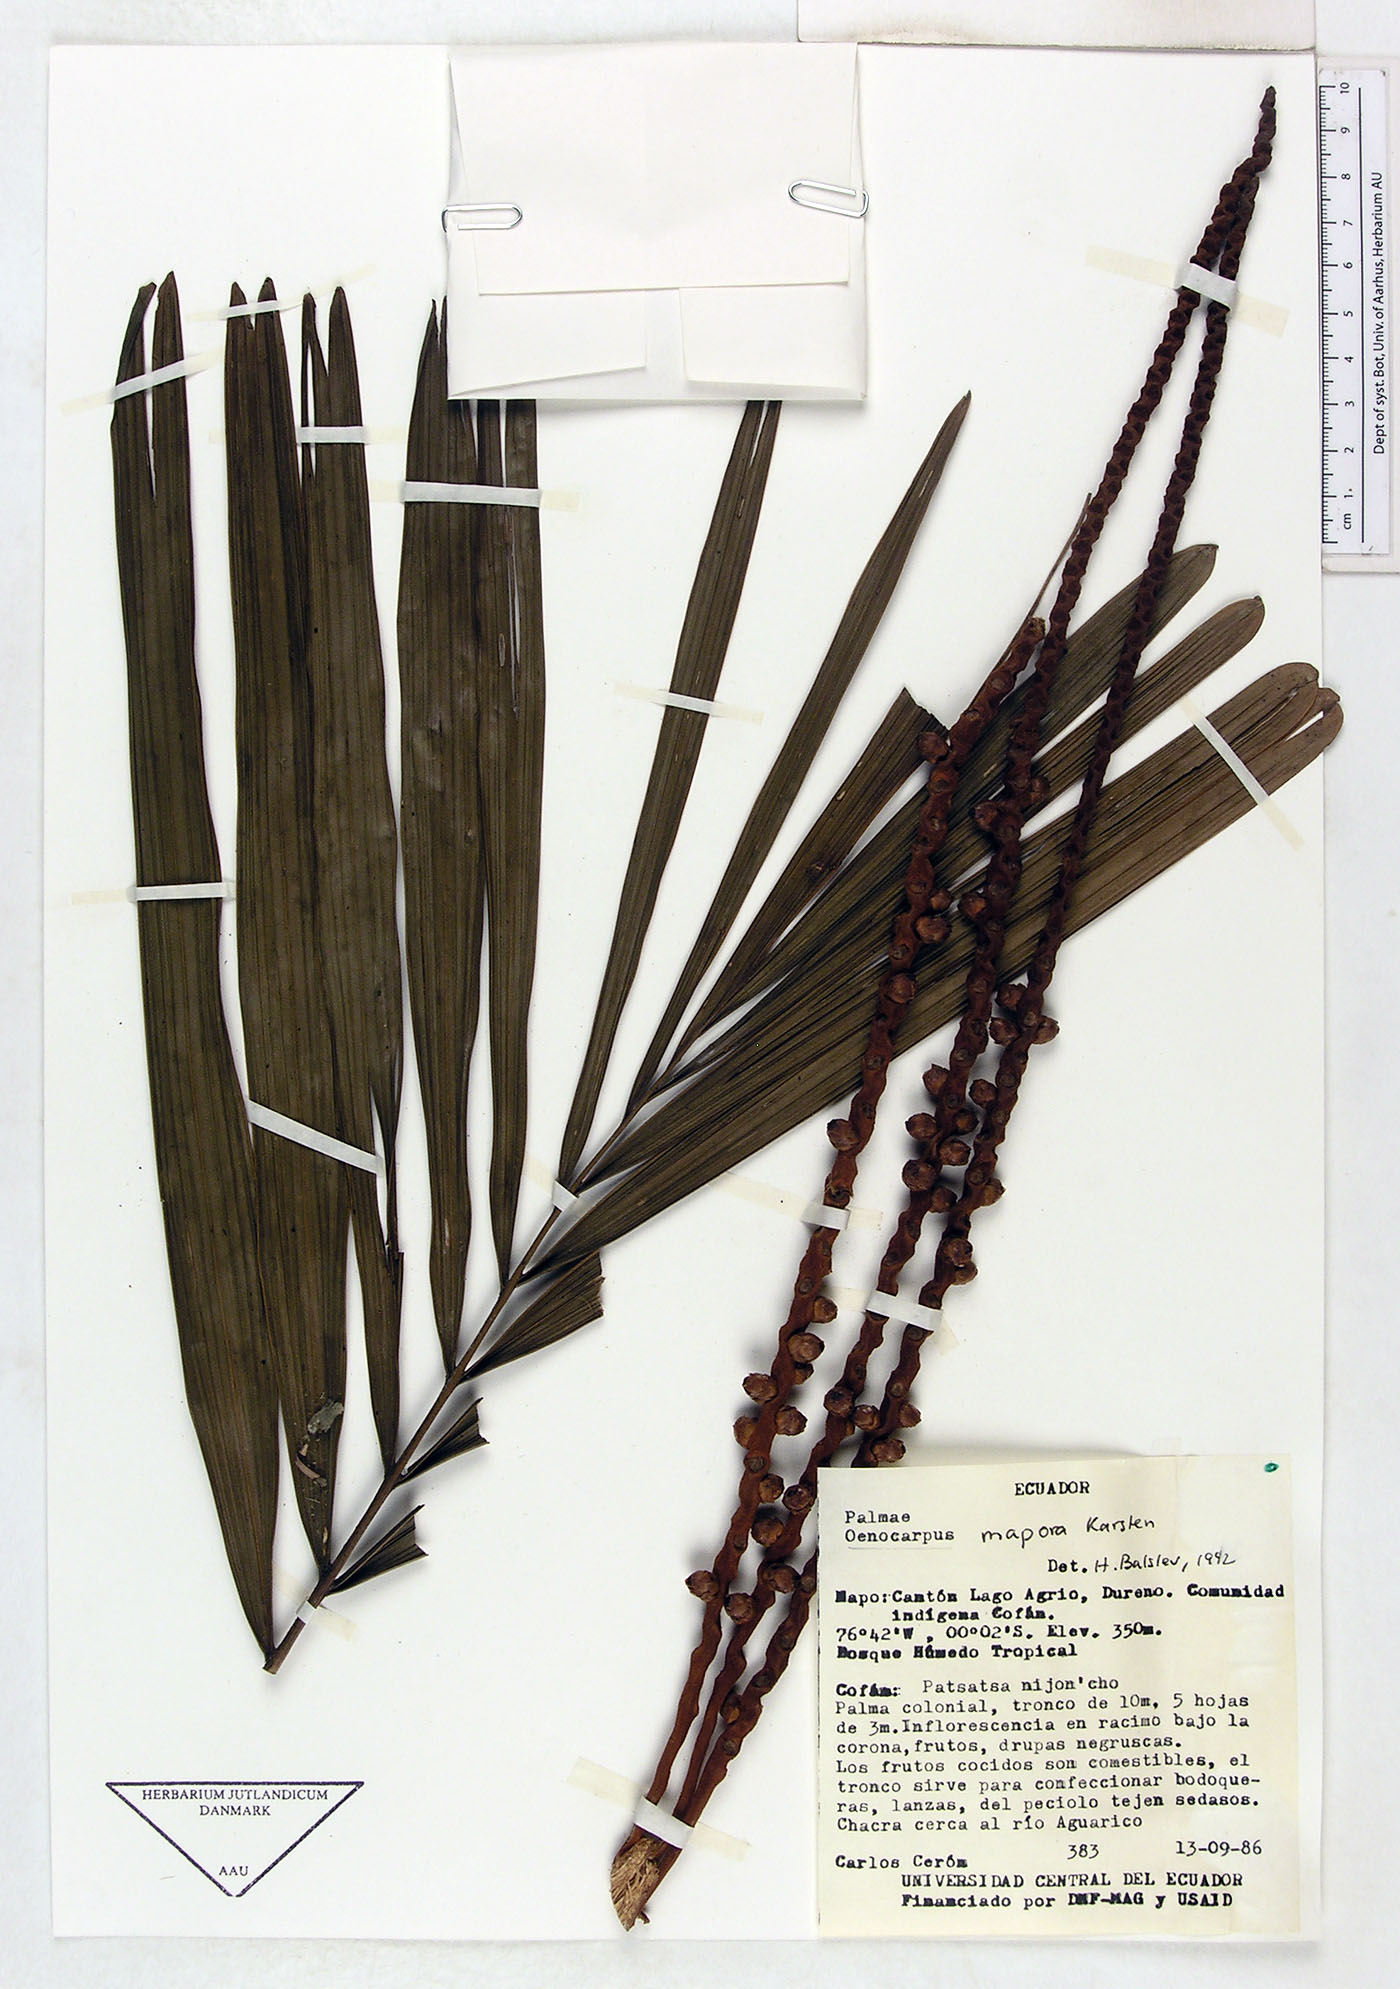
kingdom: Plantae
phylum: Tracheophyta
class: Liliopsida
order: Arecales
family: Arecaceae
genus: Oenocarpus
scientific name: Oenocarpus mapora
